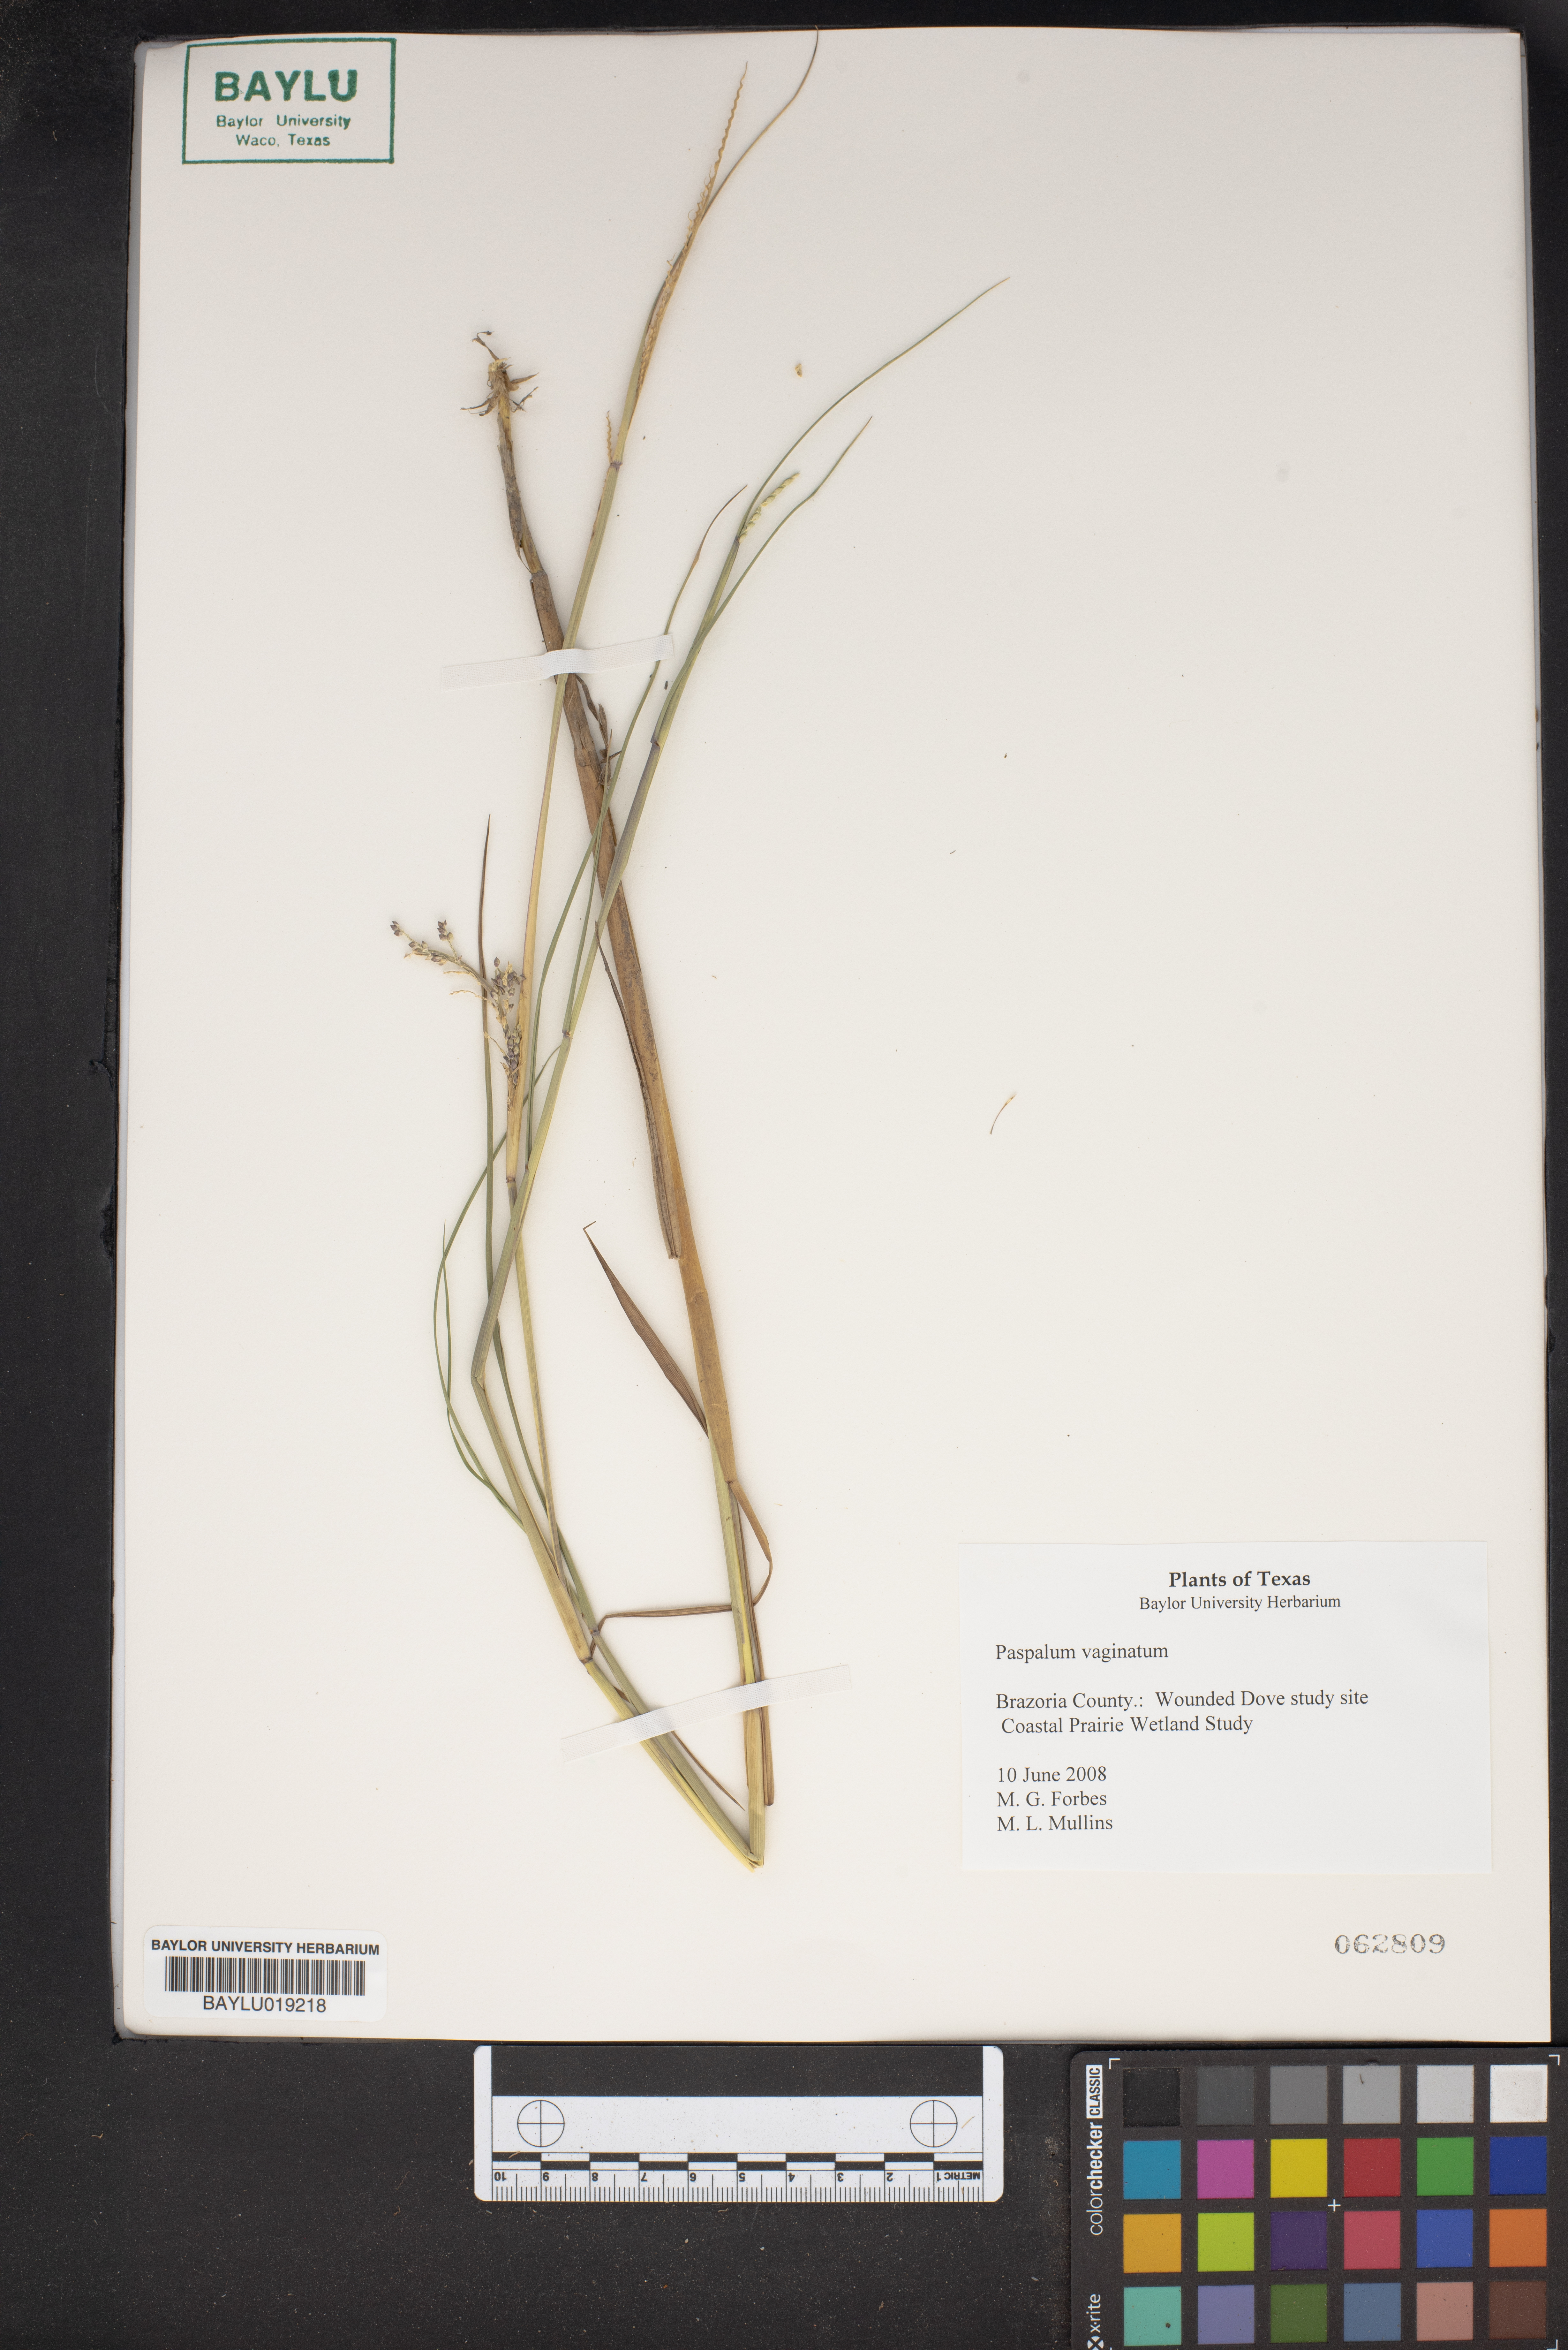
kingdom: Plantae
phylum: Tracheophyta
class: Liliopsida
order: Poales
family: Poaceae
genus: Paspalum
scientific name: Paspalum vaginatum
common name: Seashore paspalum
